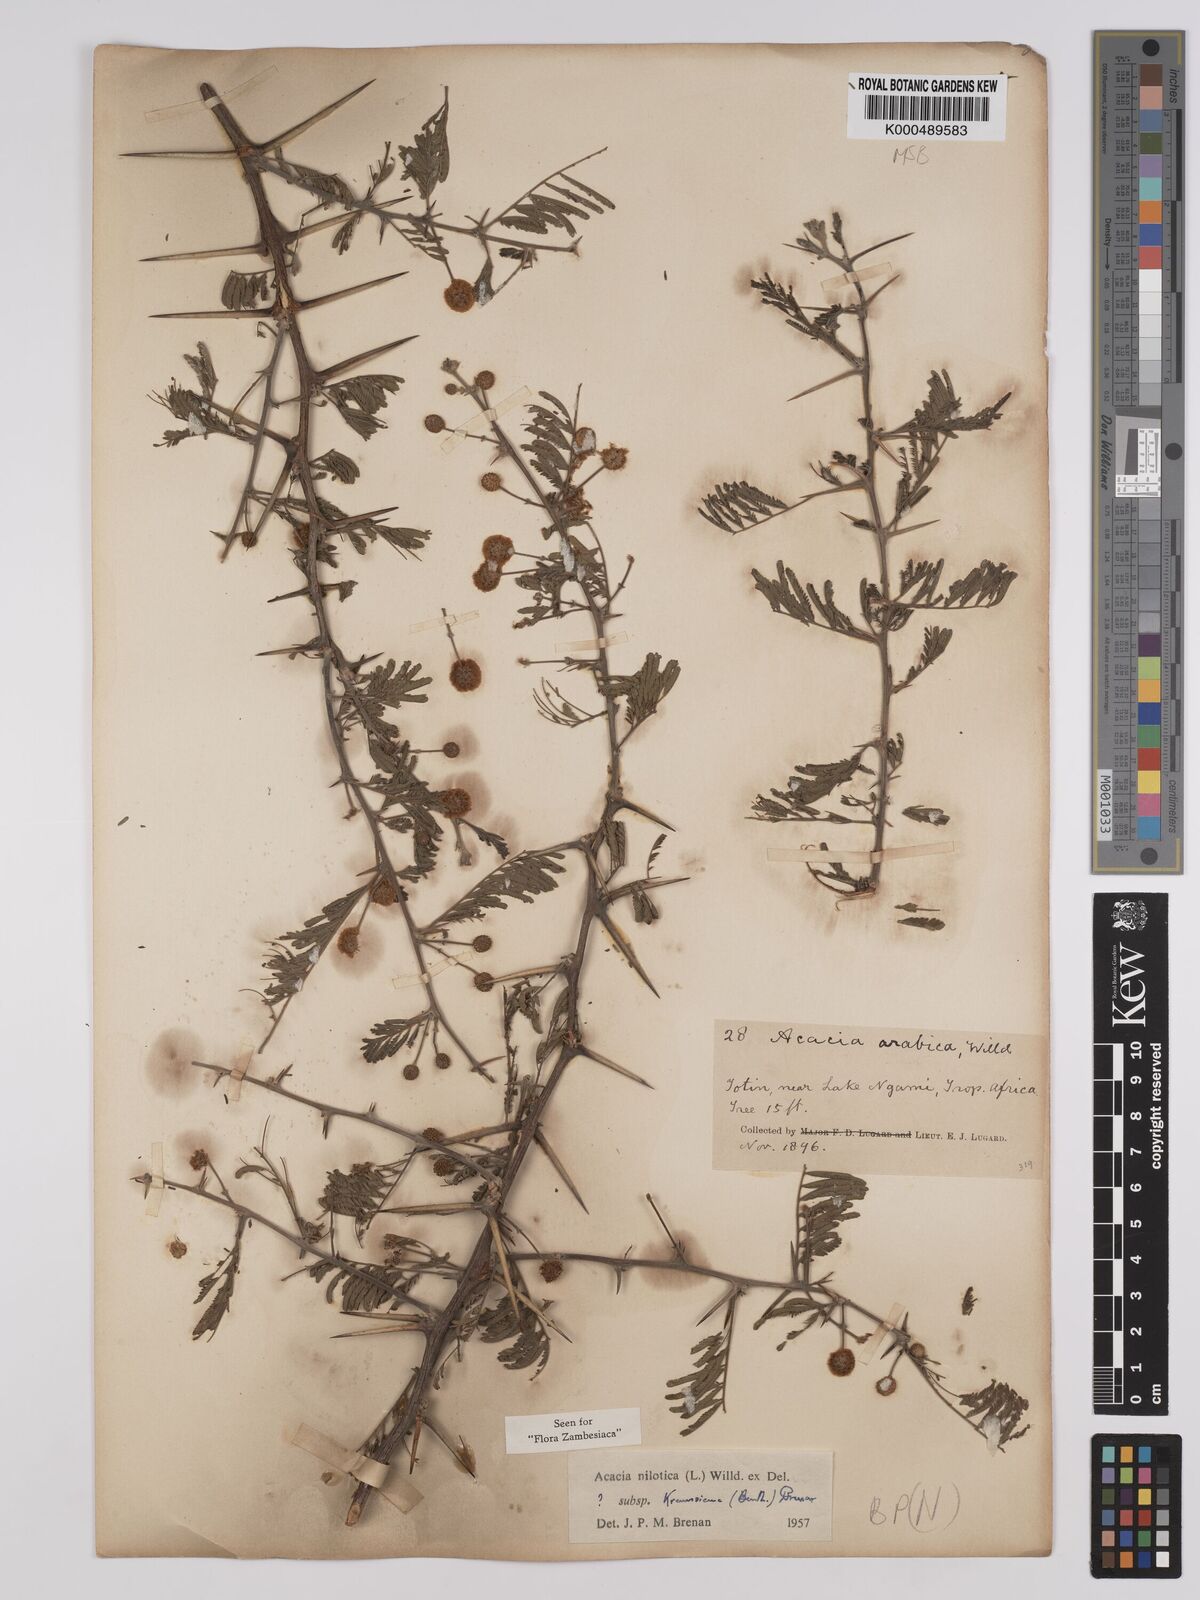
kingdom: Plantae
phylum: Tracheophyta
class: Magnoliopsida
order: Fabales
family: Fabaceae
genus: Vachellia
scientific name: Vachellia nilotica
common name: Arabic gumtree
